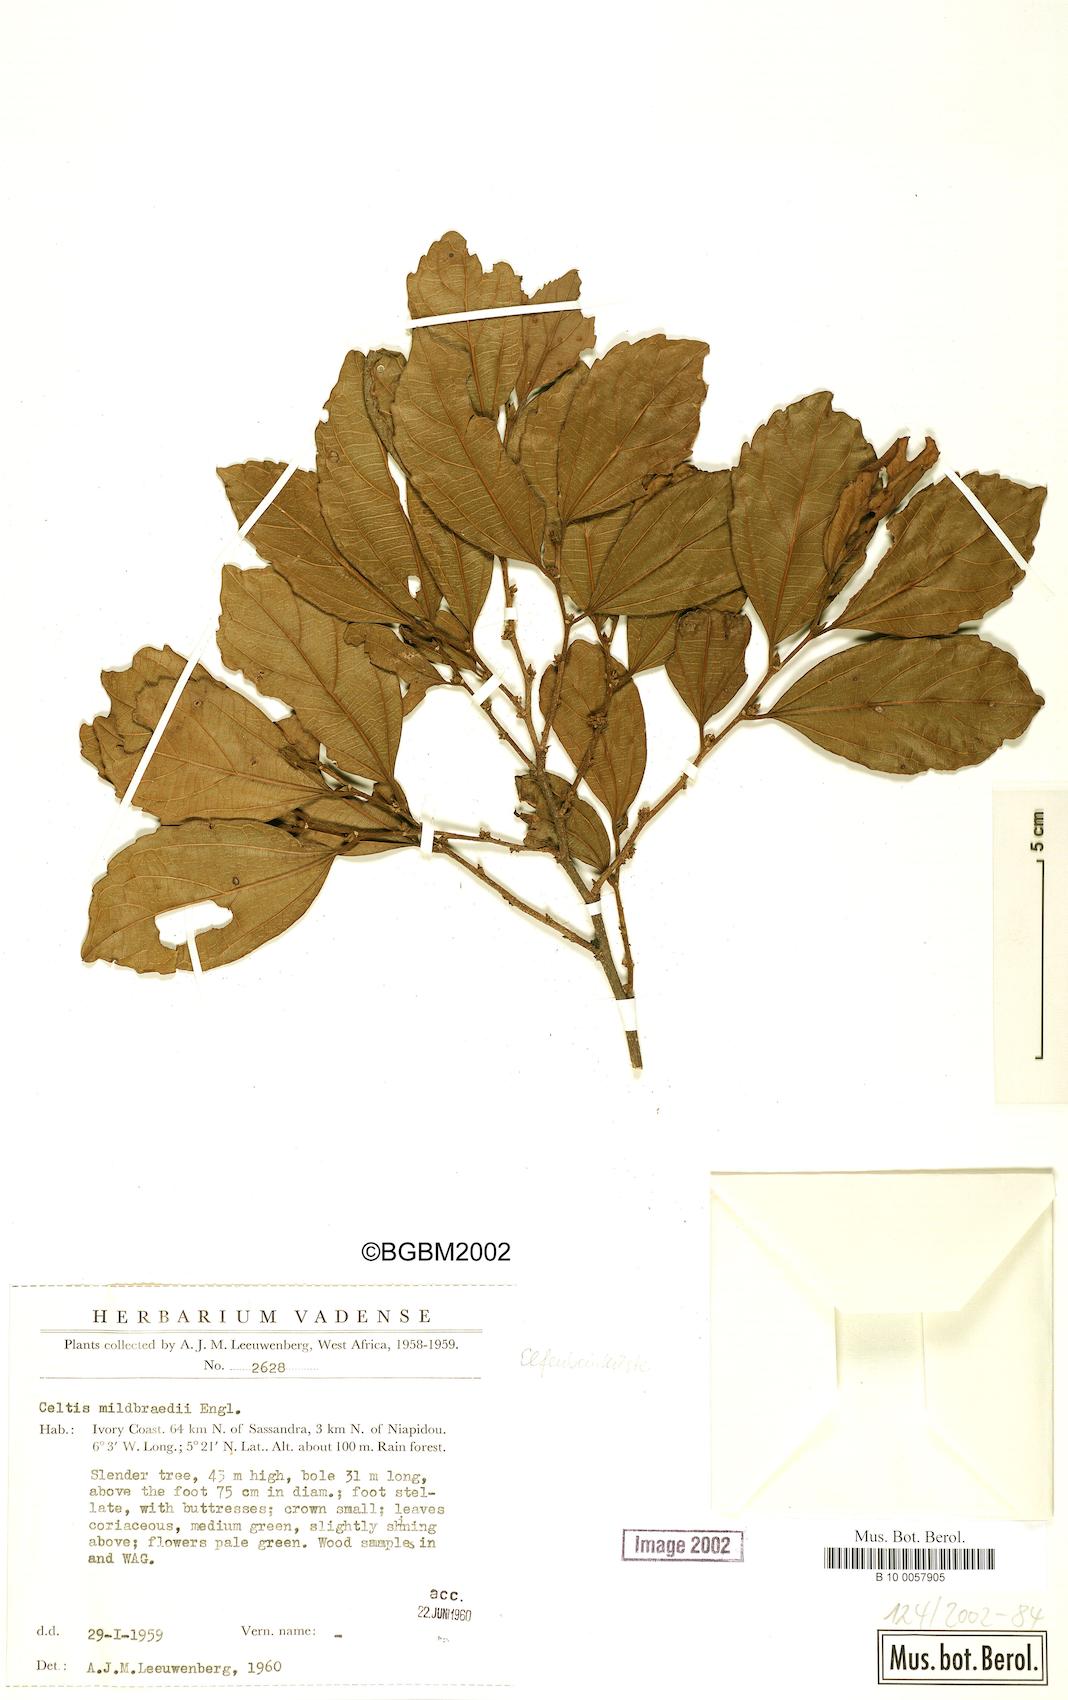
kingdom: Plantae
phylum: Tracheophyta
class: Magnoliopsida
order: Rosales
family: Cannabaceae
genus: Celtis
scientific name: Celtis mildbraedii
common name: Red-fruited stinkwood
